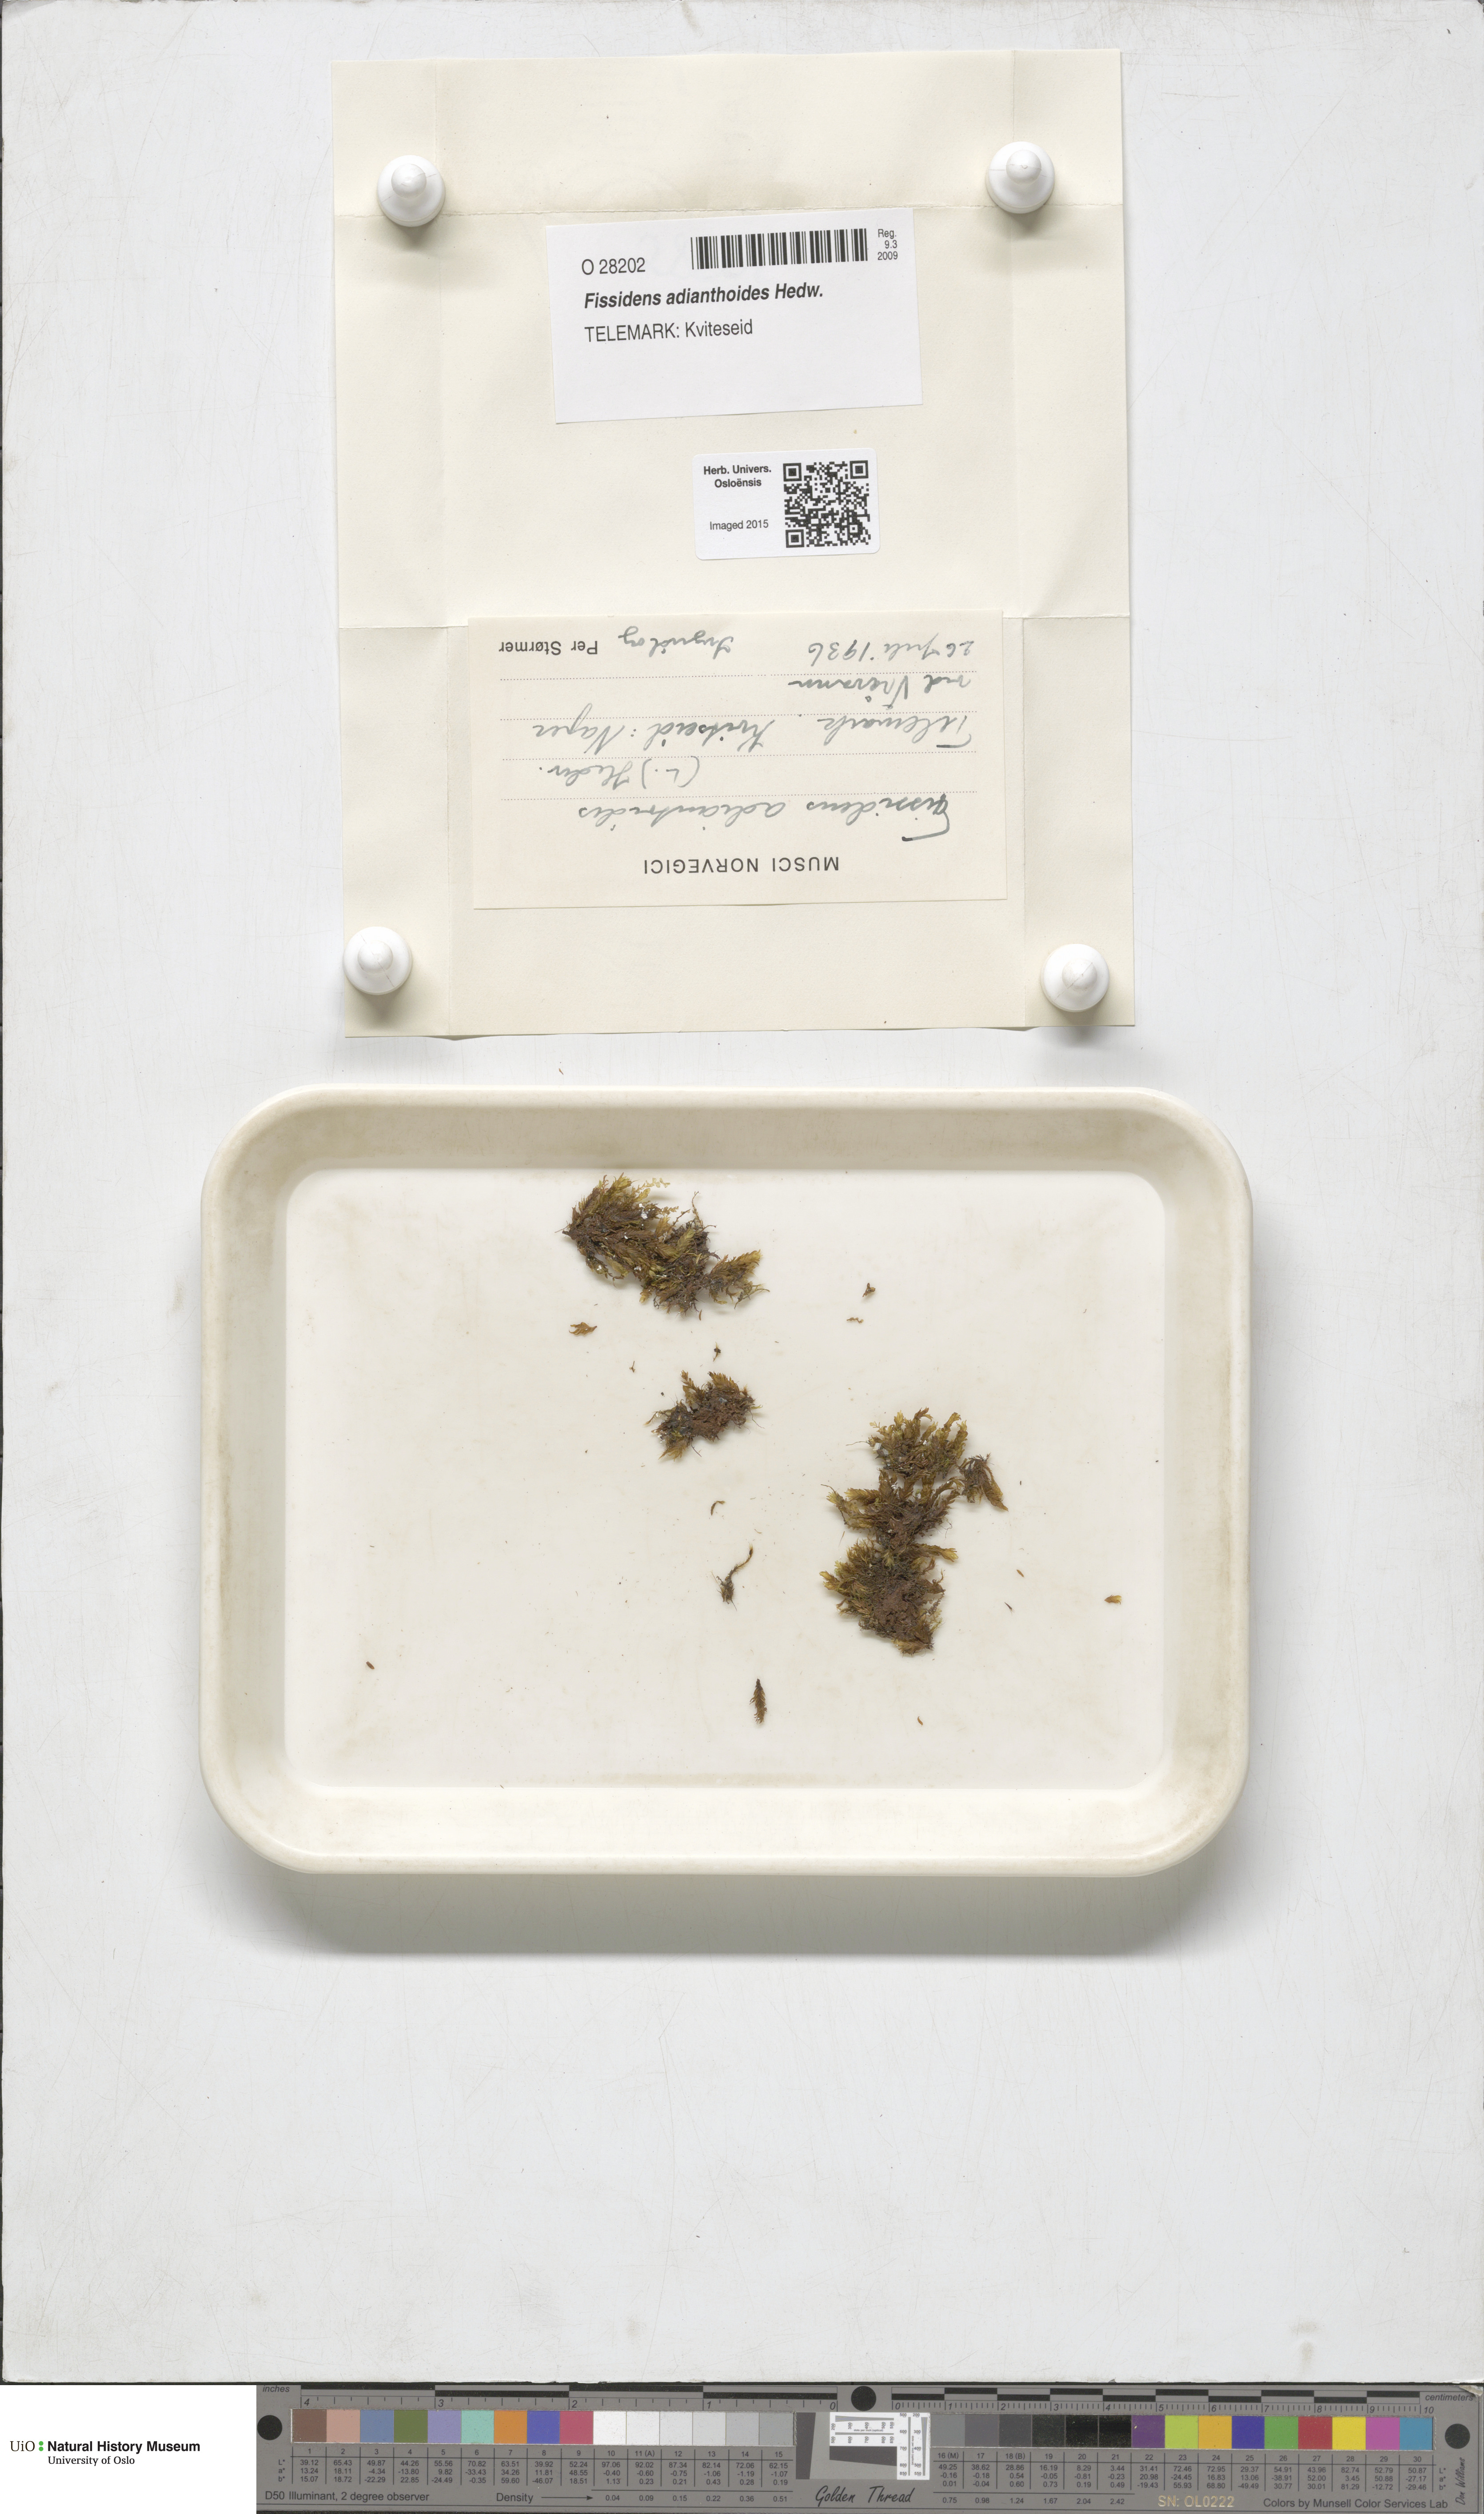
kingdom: Plantae
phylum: Bryophyta
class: Bryopsida
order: Dicranales
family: Fissidentaceae
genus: Fissidens
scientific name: Fissidens adianthoides
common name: Maidenhair pocket moss
